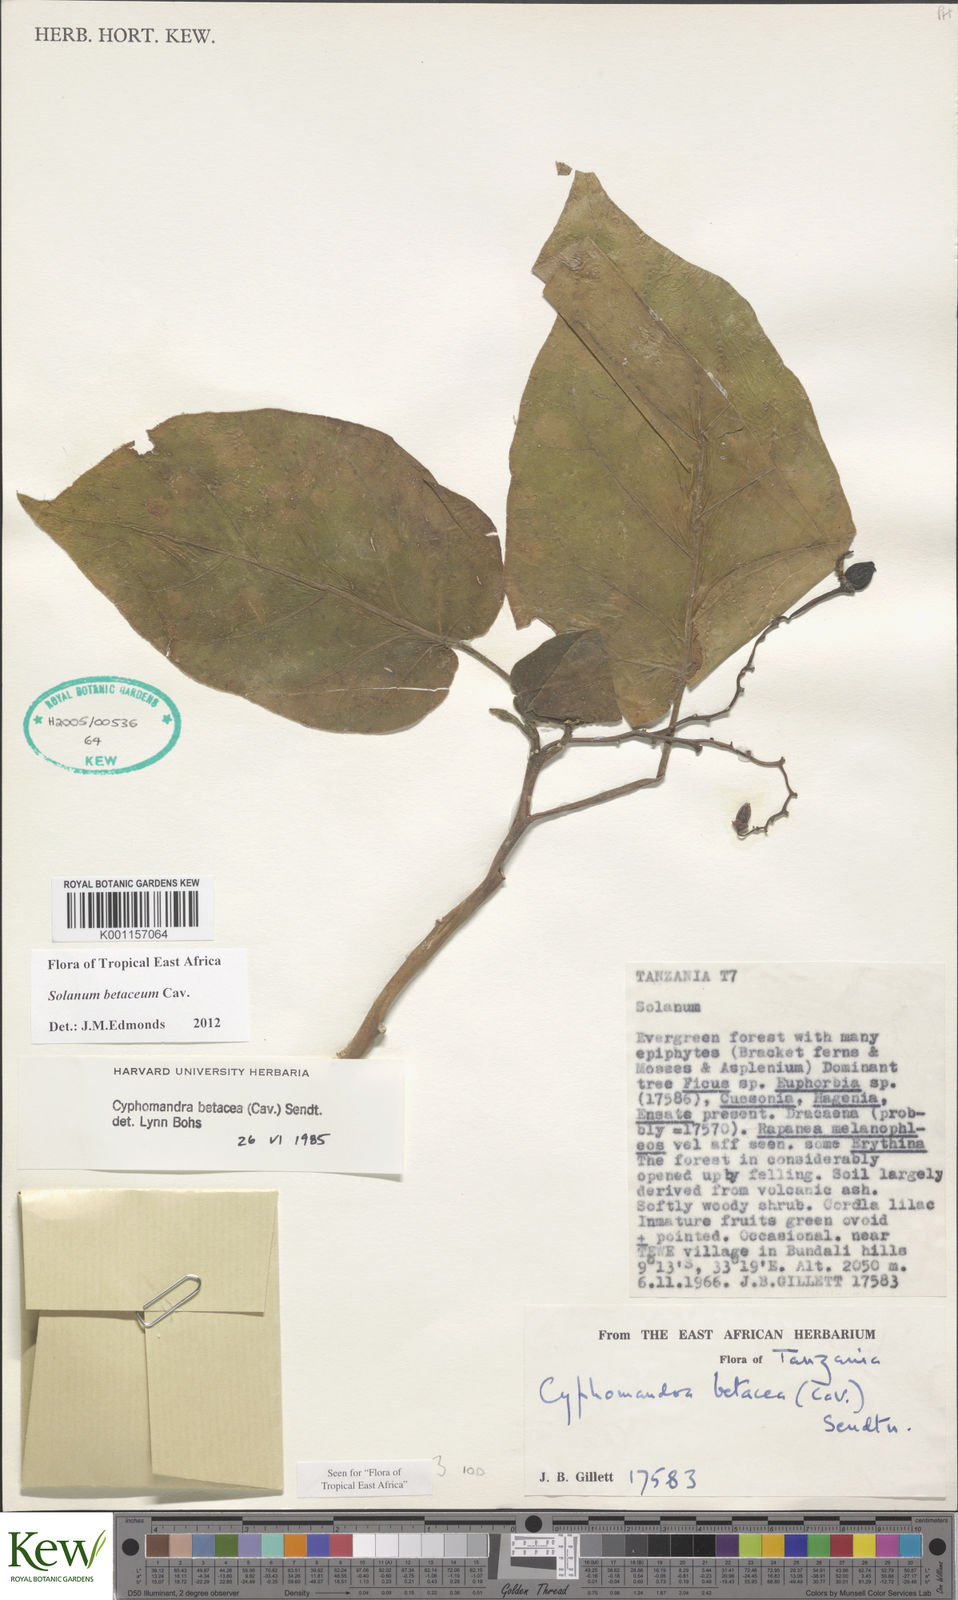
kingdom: Plantae
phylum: Tracheophyta
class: Magnoliopsida
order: Solanales
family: Solanaceae
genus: Solanum
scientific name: Solanum betaceum
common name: Tamarillo
